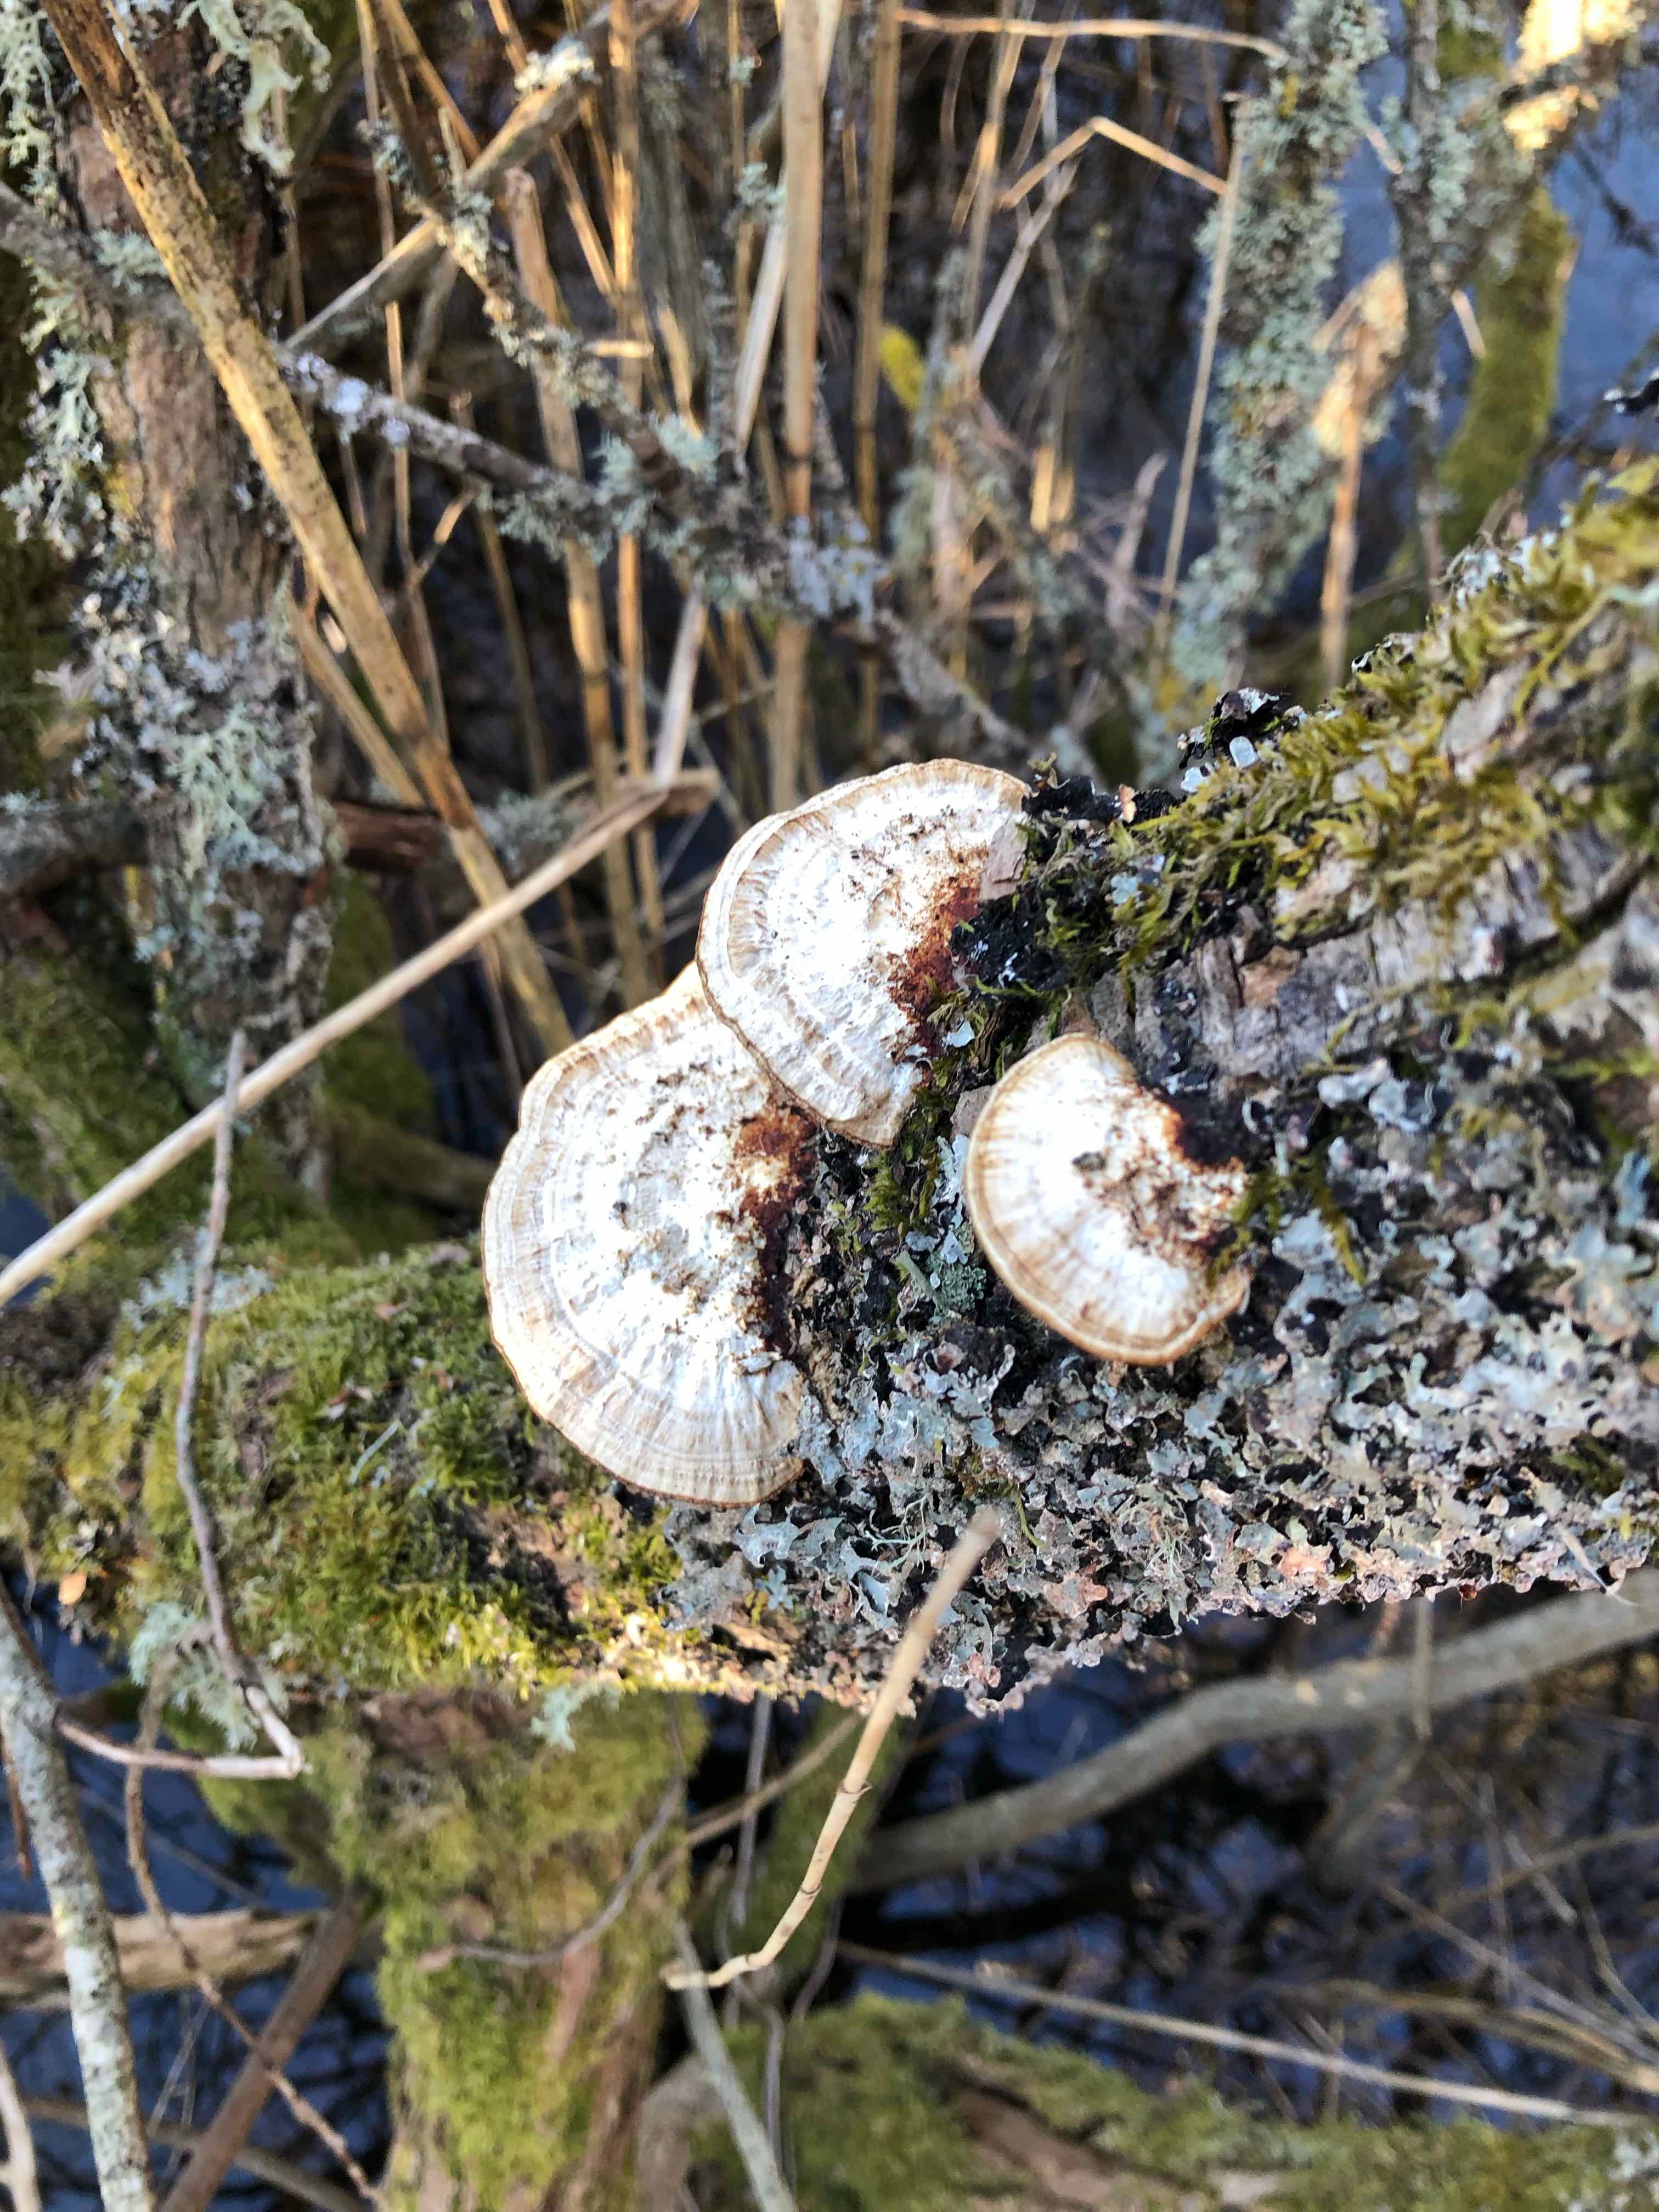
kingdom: Fungi
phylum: Basidiomycota
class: Agaricomycetes
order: Polyporales
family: Polyporaceae
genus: Daedaleopsis
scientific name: Daedaleopsis confragosa
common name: rødmende læderporesvamp
